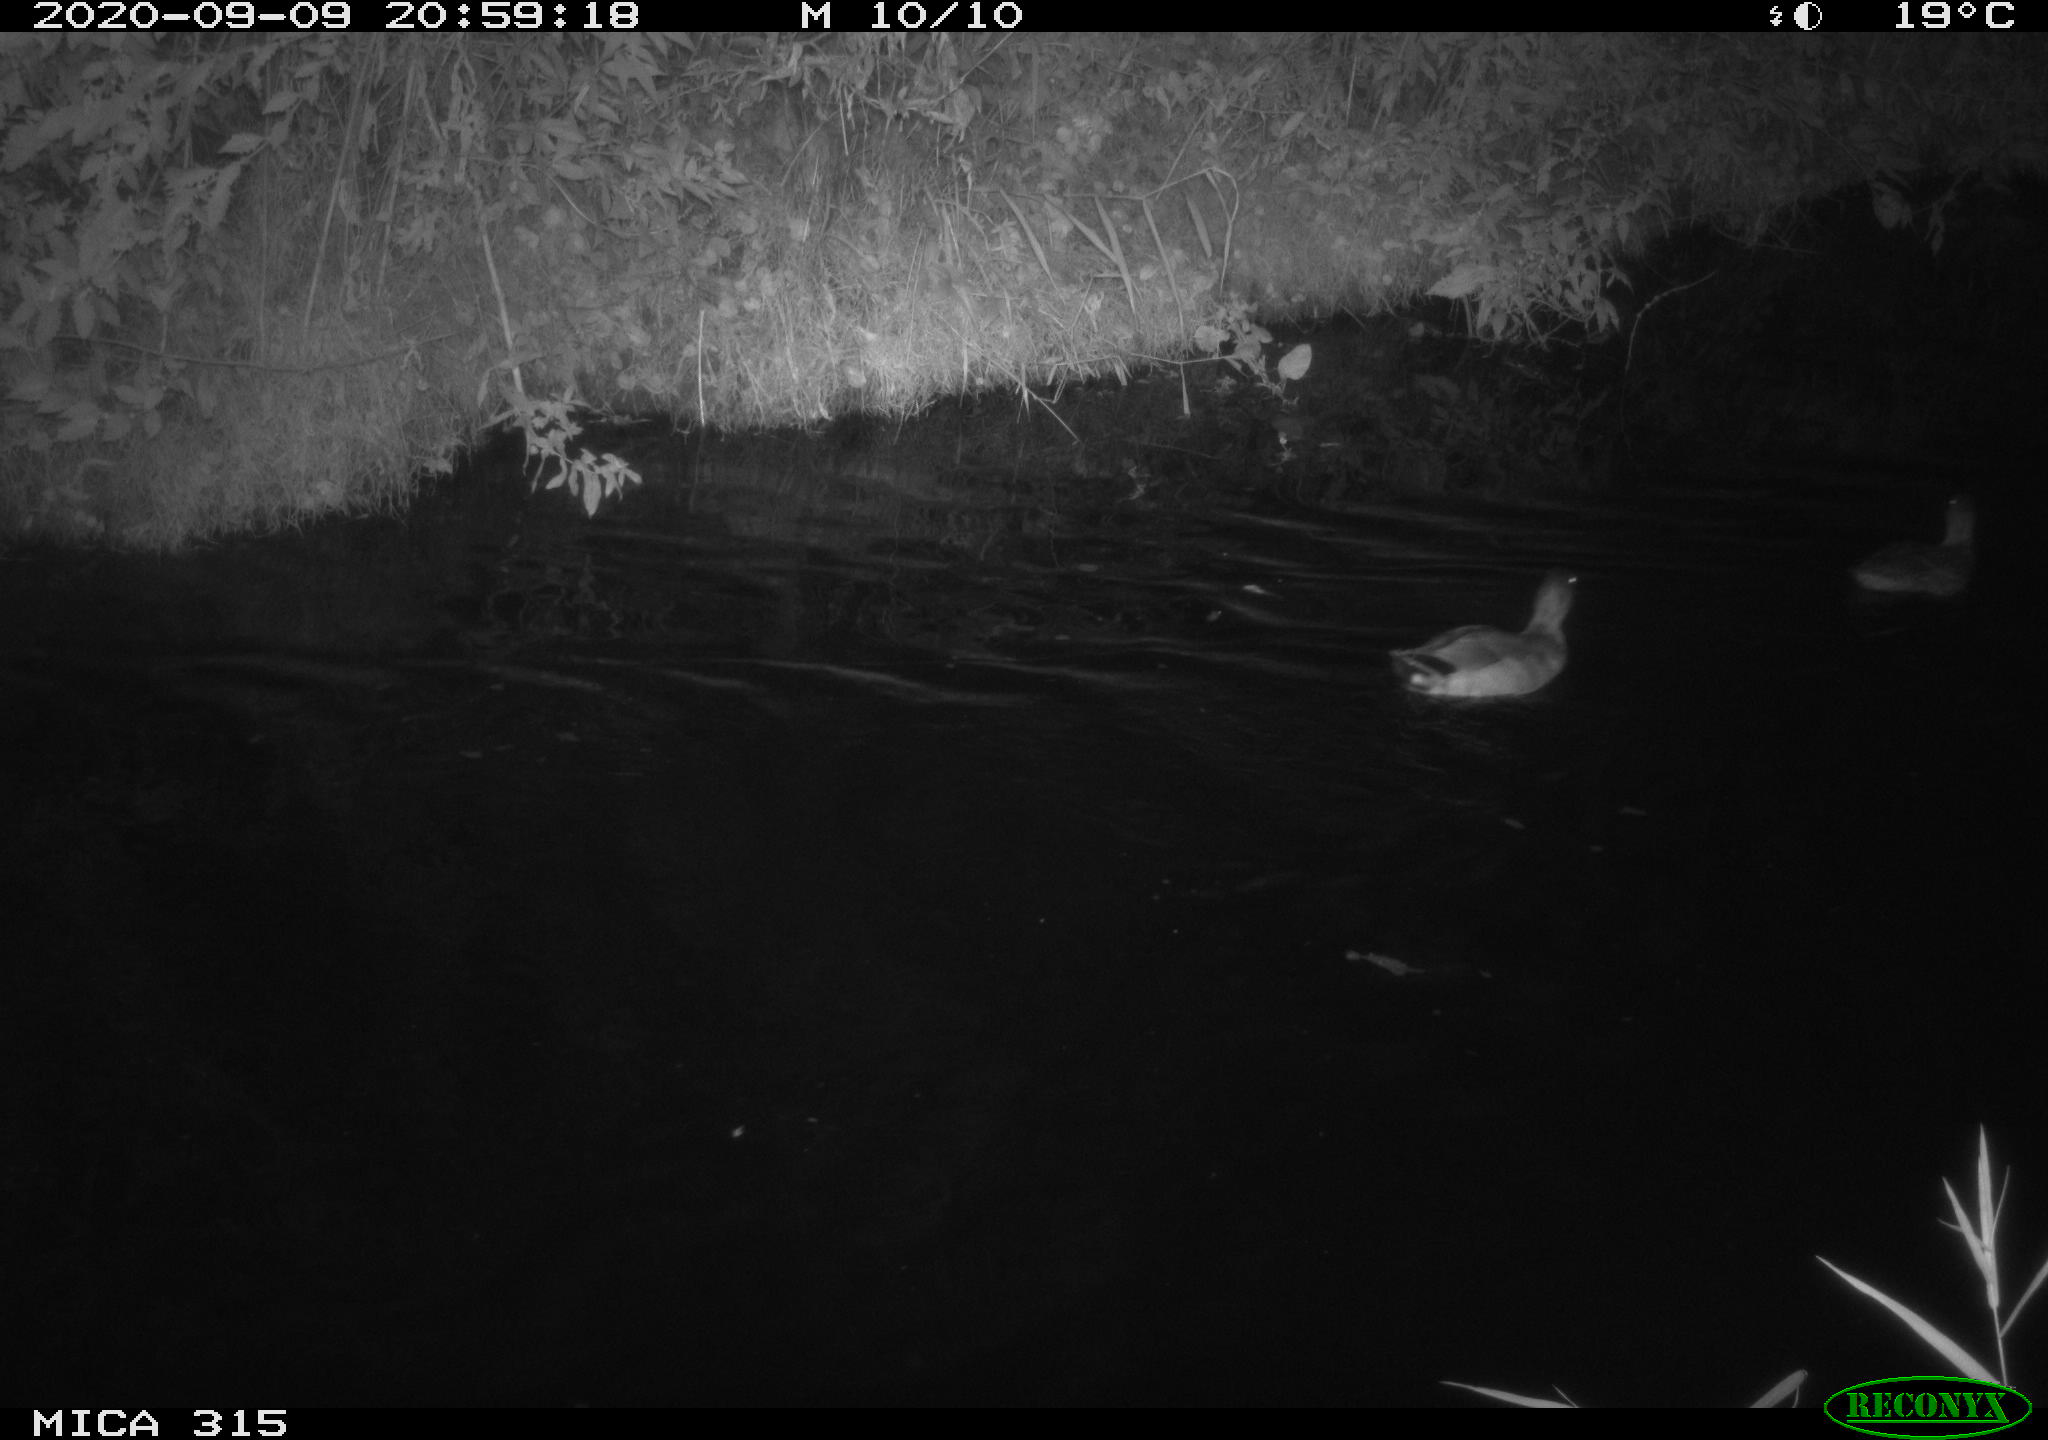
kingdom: Animalia
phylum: Chordata
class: Aves
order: Anseriformes
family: Anatidae
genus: Anas
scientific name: Anas platyrhynchos
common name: Mallard
